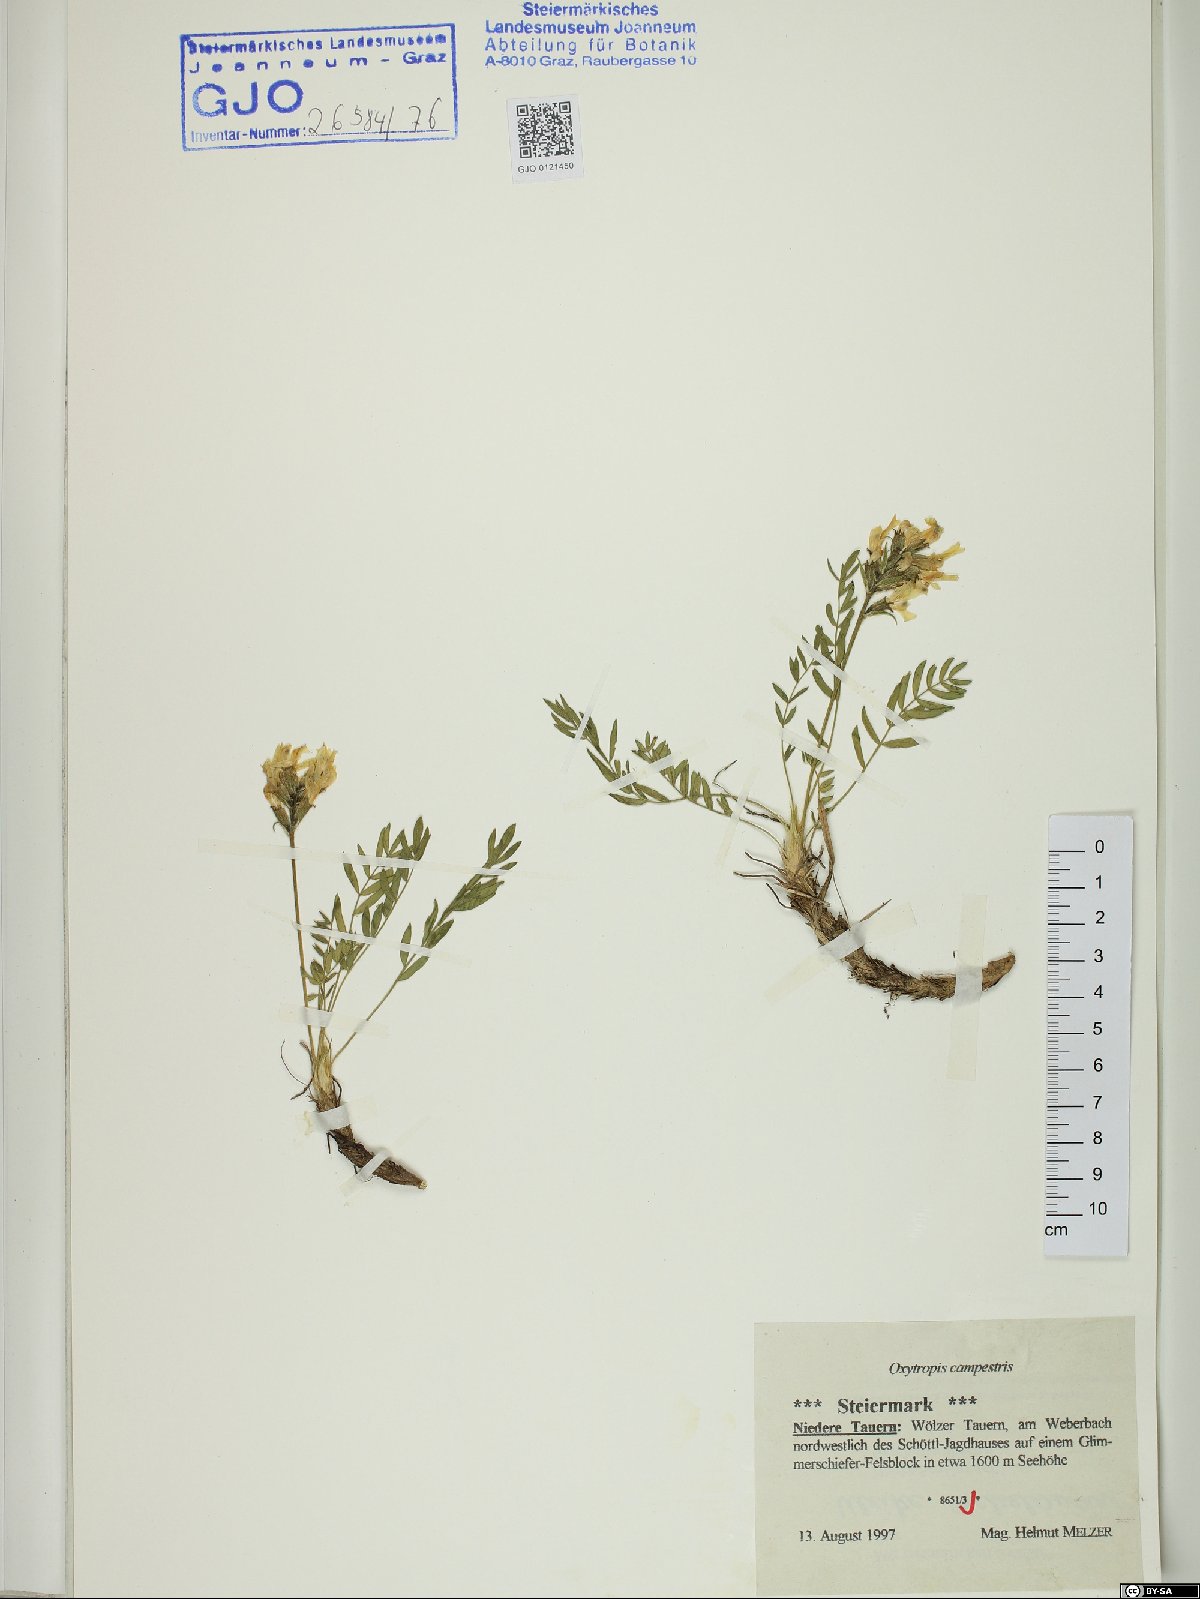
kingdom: Plantae
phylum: Tracheophyta
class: Magnoliopsida
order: Fabales
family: Fabaceae
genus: Oxytropis
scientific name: Oxytropis campestris
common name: Field locoweed
